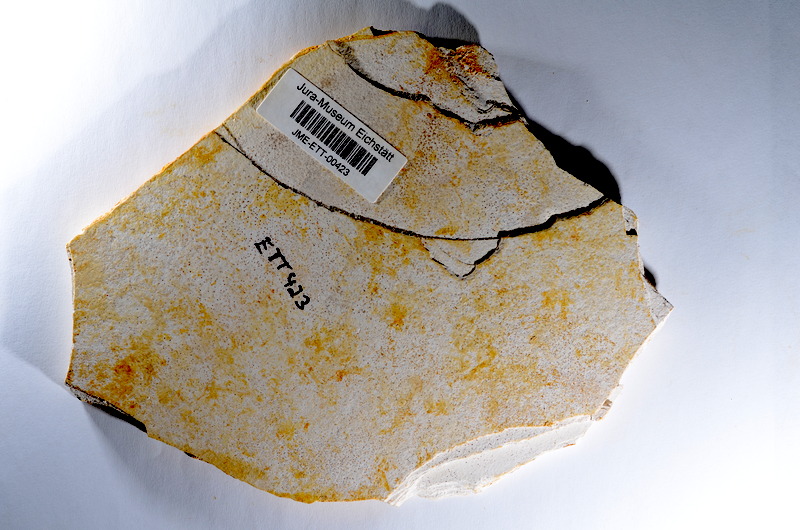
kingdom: Animalia
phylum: Chordata
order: Salmoniformes
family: Orthogonikleithridae
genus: Orthogonikleithrus
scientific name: Orthogonikleithrus hoelli
